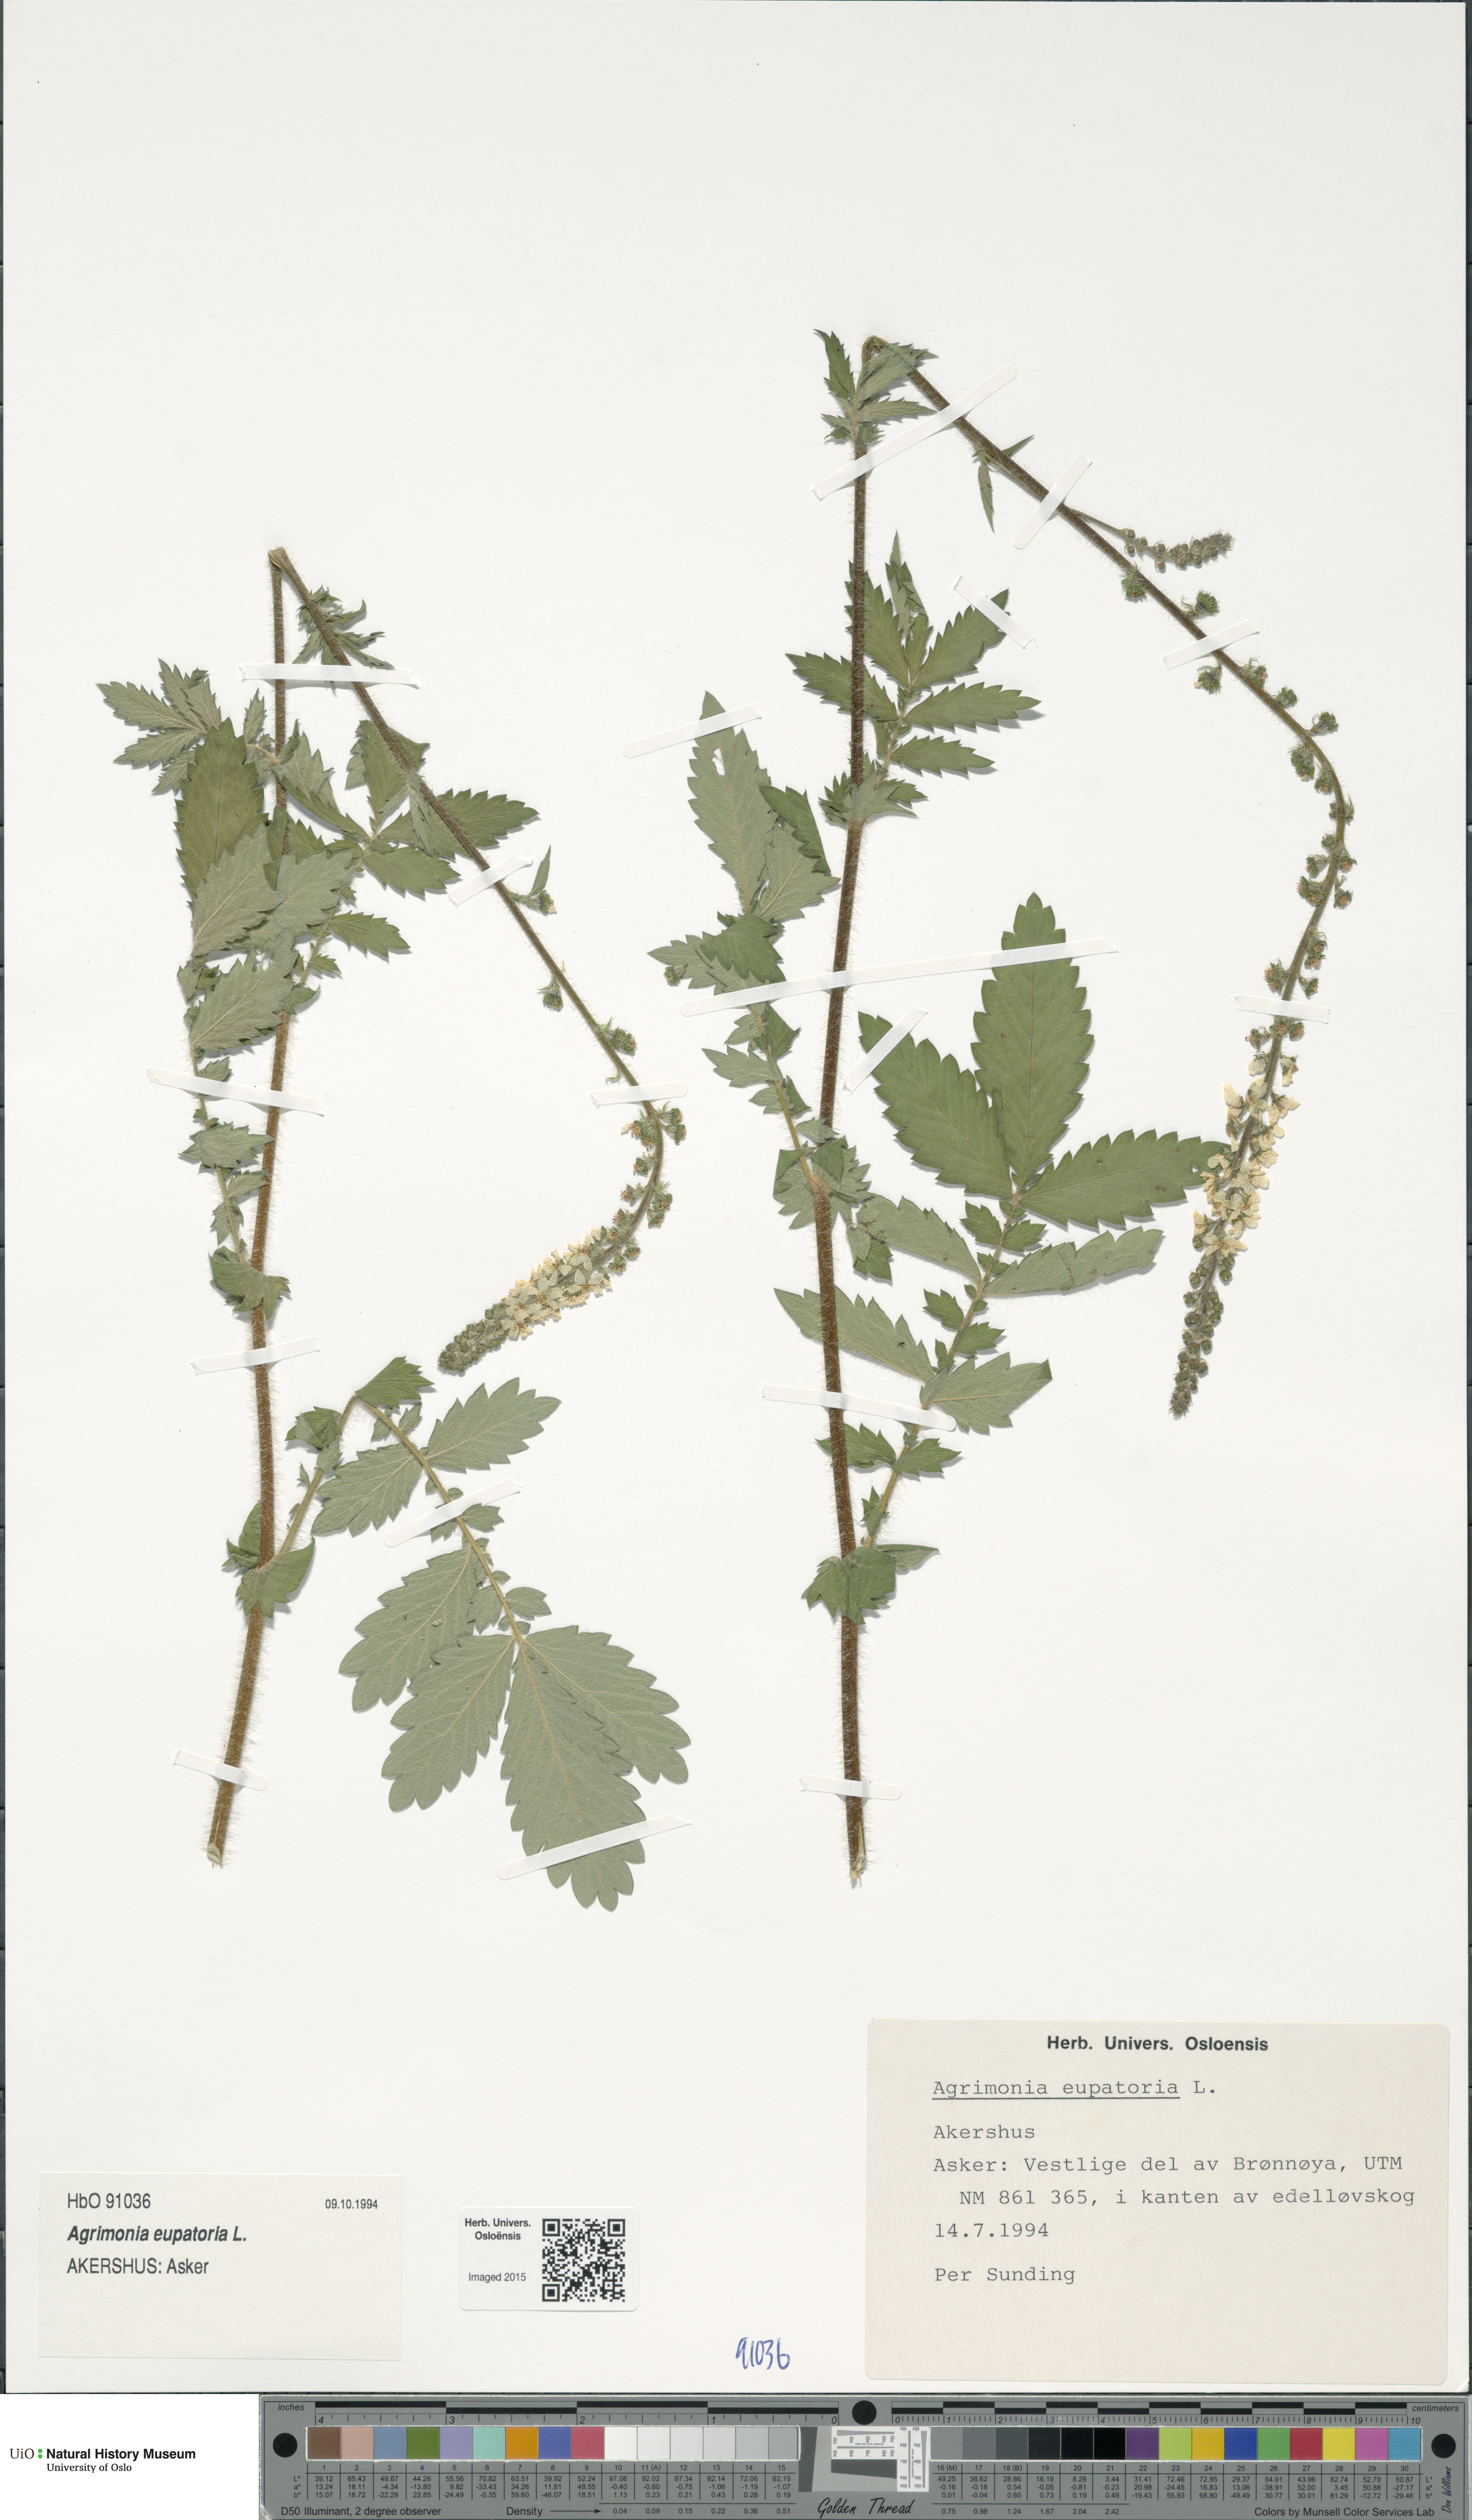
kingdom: Plantae
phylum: Tracheophyta
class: Magnoliopsida
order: Rosales
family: Rosaceae
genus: Agrimonia
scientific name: Agrimonia eupatoria
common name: Agrimony
